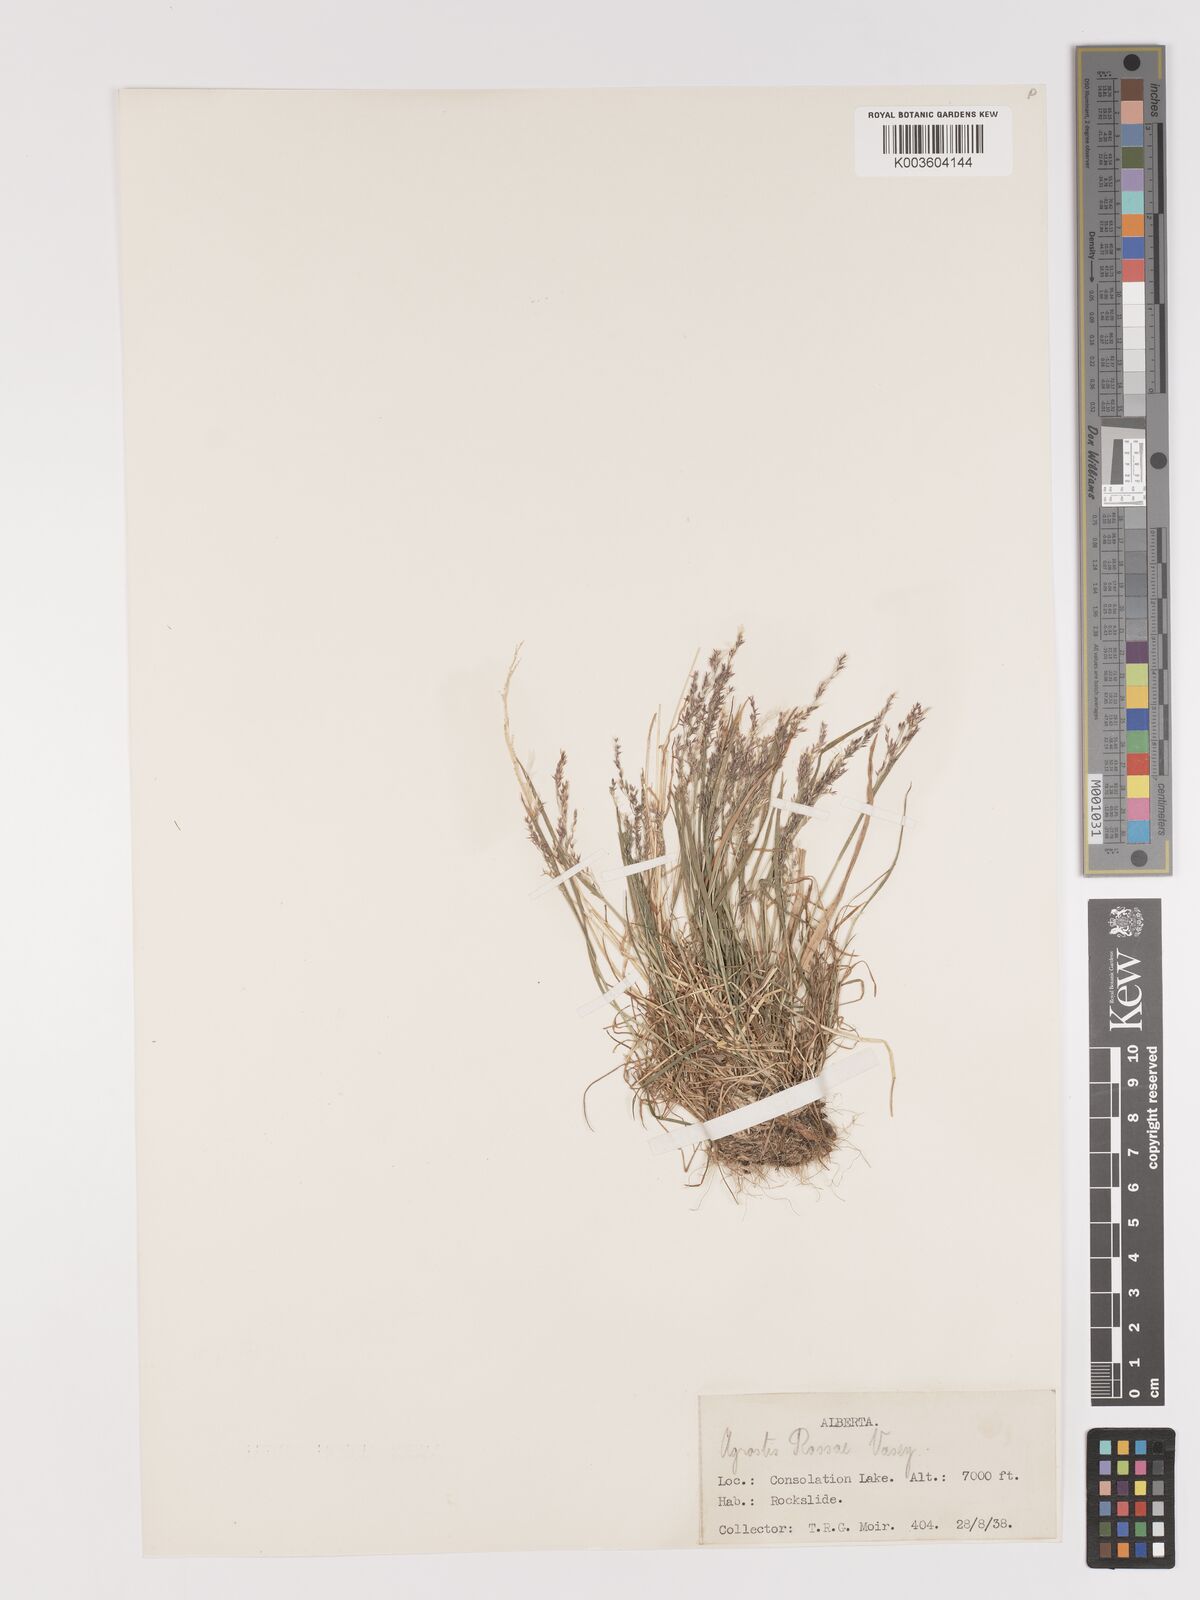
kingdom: Plantae
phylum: Tracheophyta
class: Liliopsida
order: Poales
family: Poaceae
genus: Agrostis
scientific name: Agrostis rossiae
